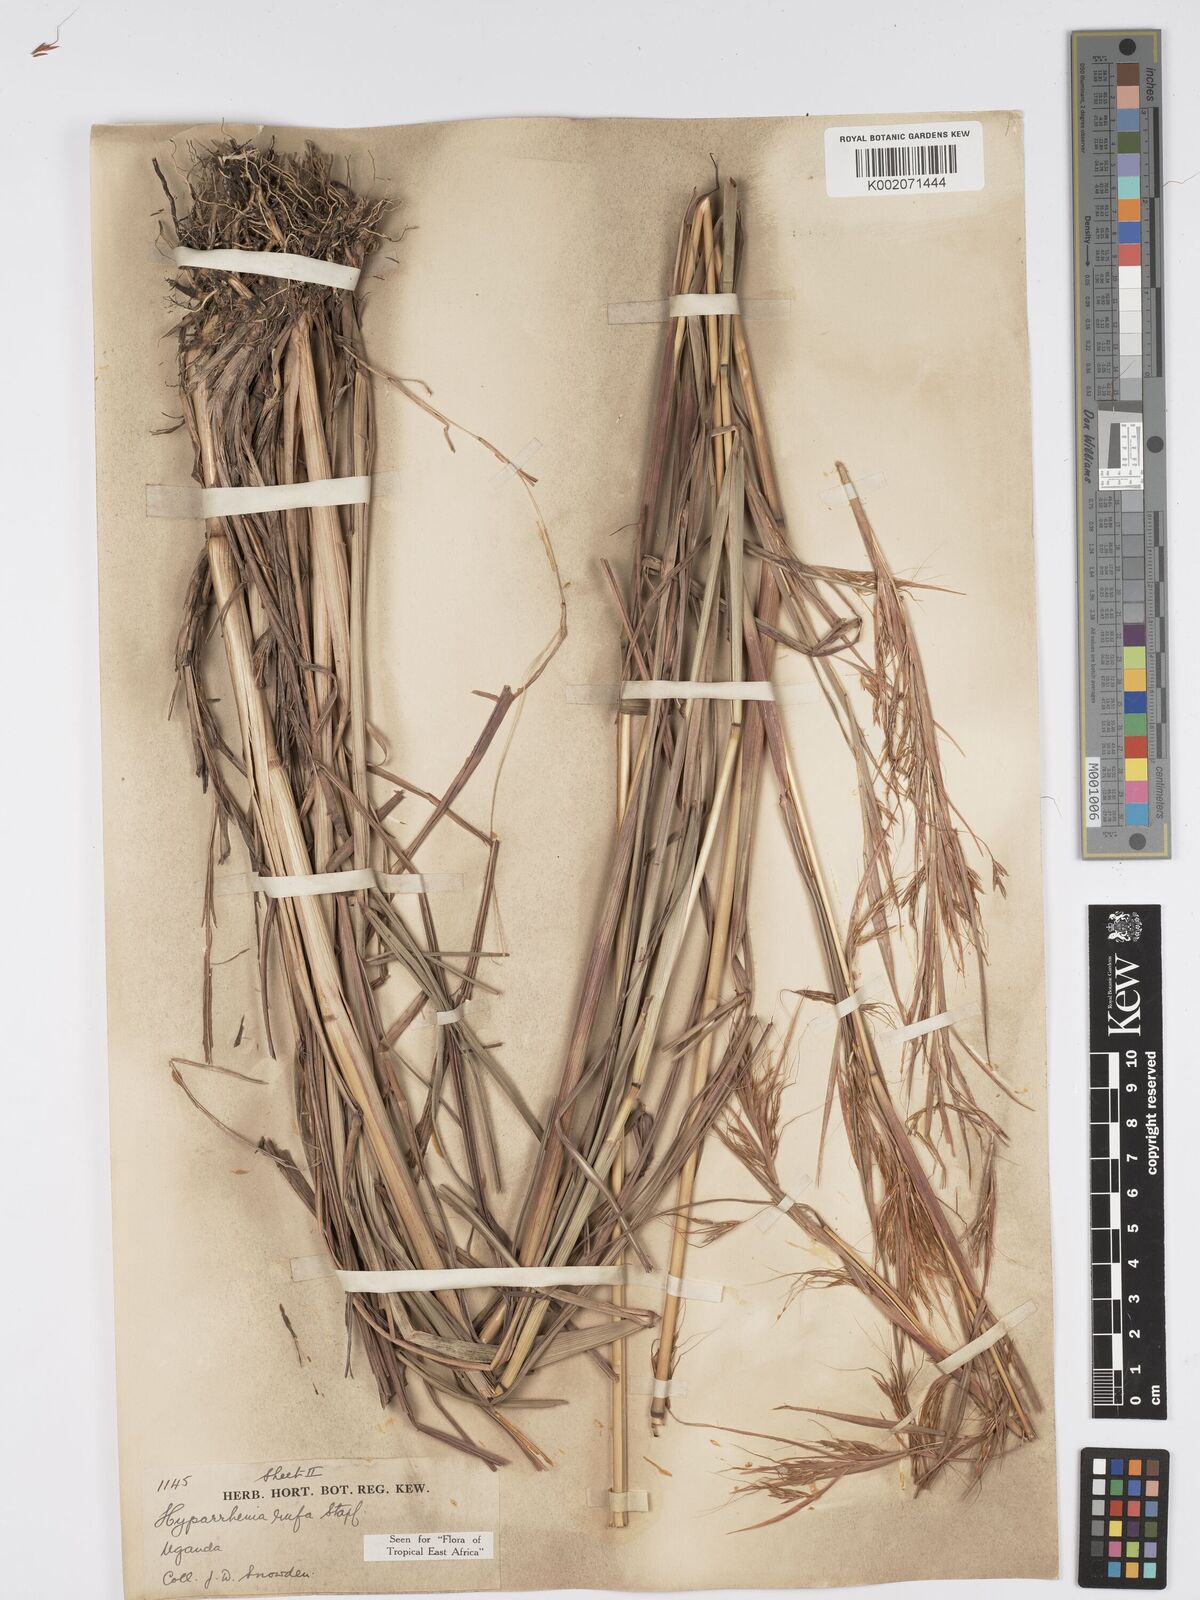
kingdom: Plantae
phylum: Tracheophyta
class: Liliopsida
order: Poales
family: Poaceae
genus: Hyparrhenia
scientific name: Hyparrhenia rufa
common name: Jaraguagrass
